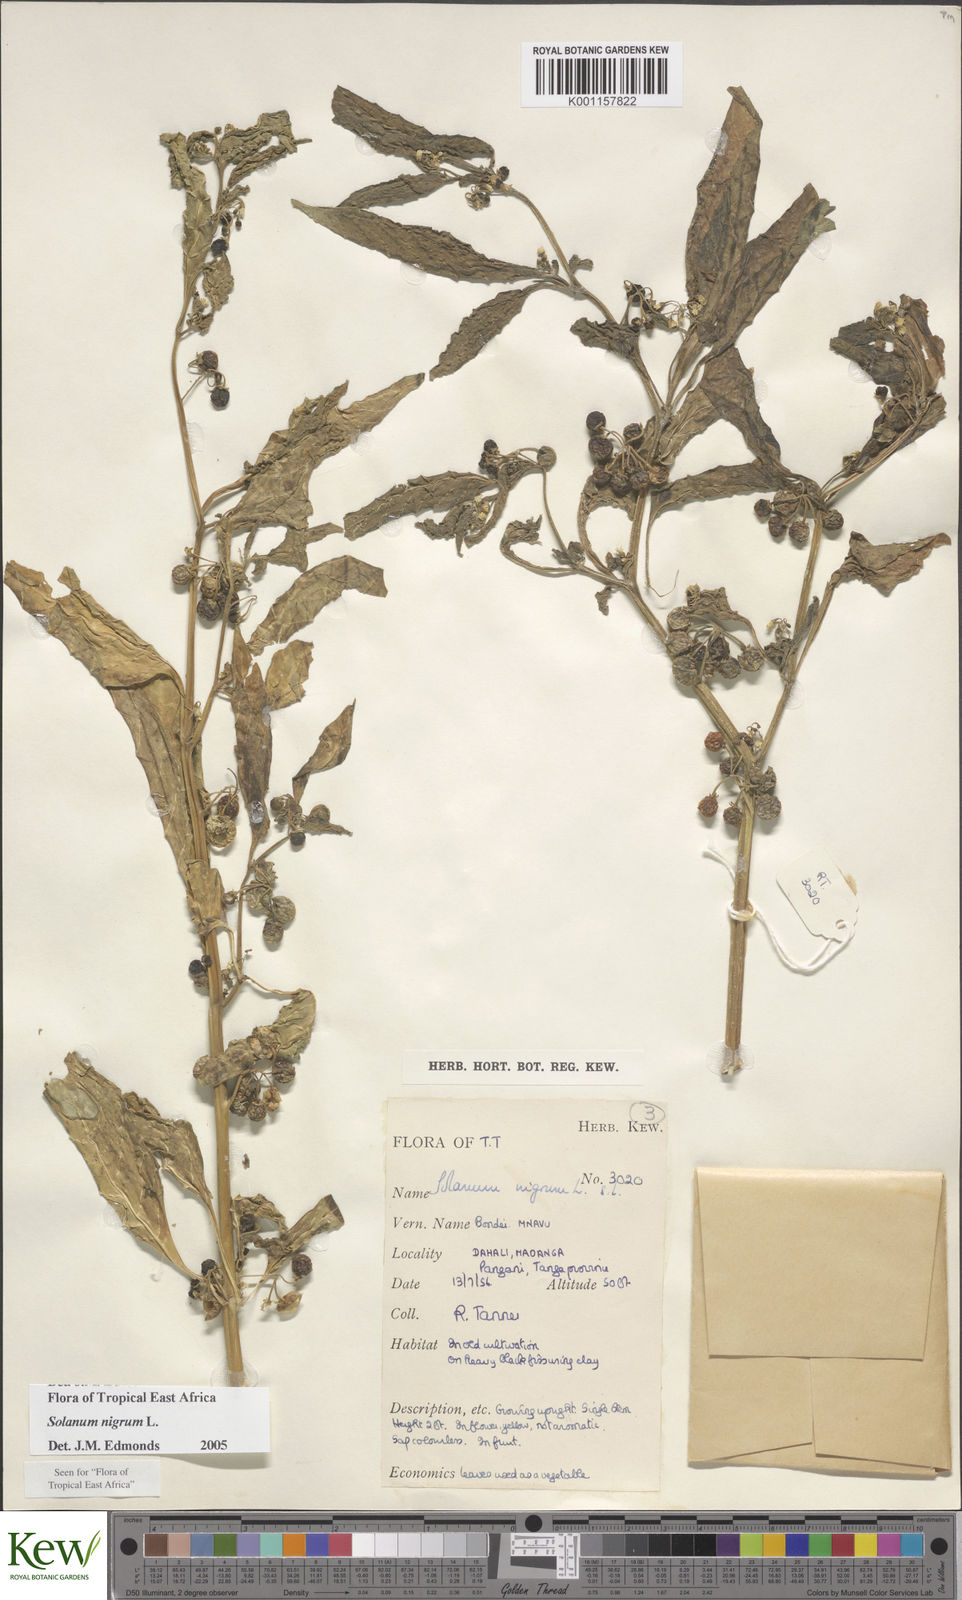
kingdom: Plantae
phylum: Tracheophyta
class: Magnoliopsida
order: Solanales
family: Solanaceae
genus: Solanum
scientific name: Solanum nigrum
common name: Black nightshade
